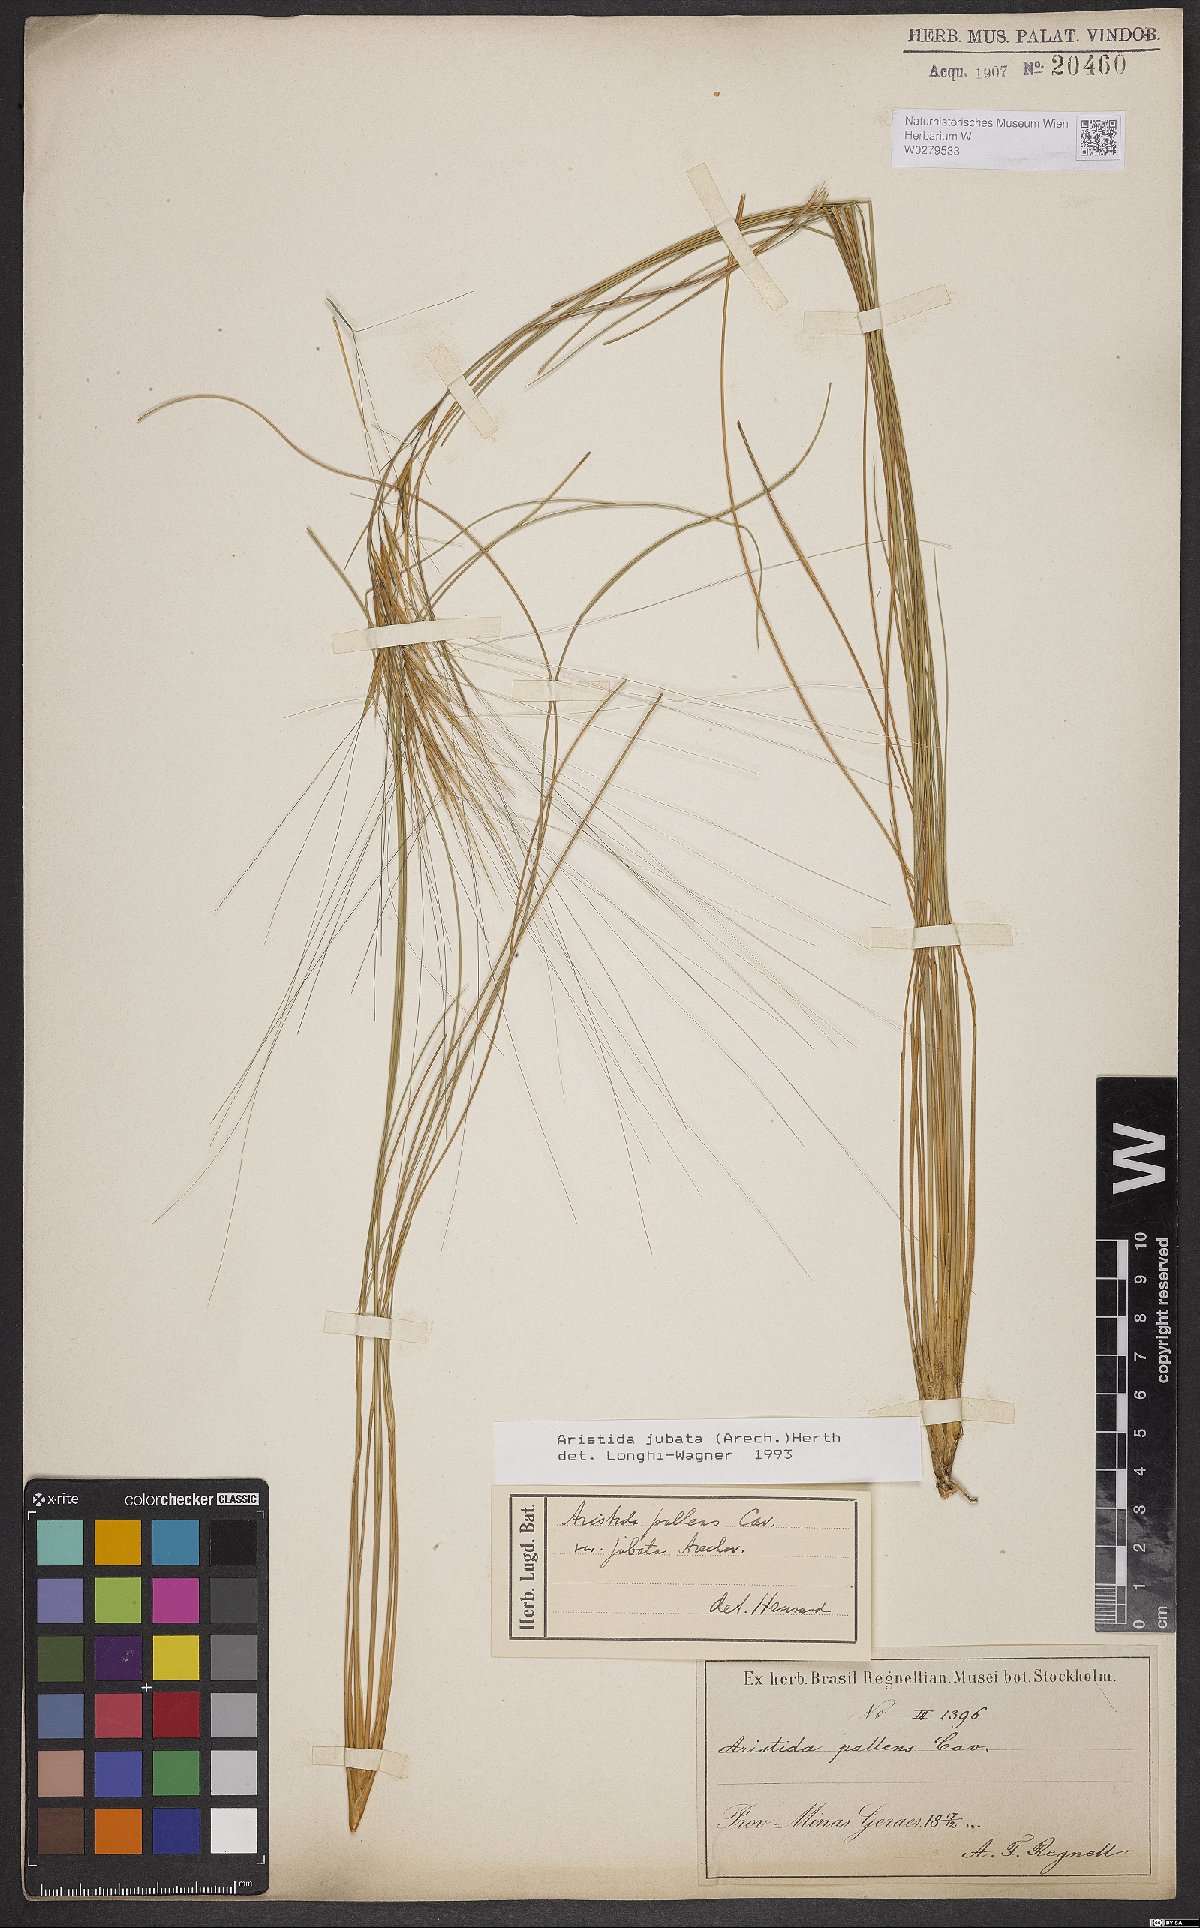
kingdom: Plantae
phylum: Tracheophyta
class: Liliopsida
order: Poales
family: Poaceae
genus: Aristida
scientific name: Aristida jubata
